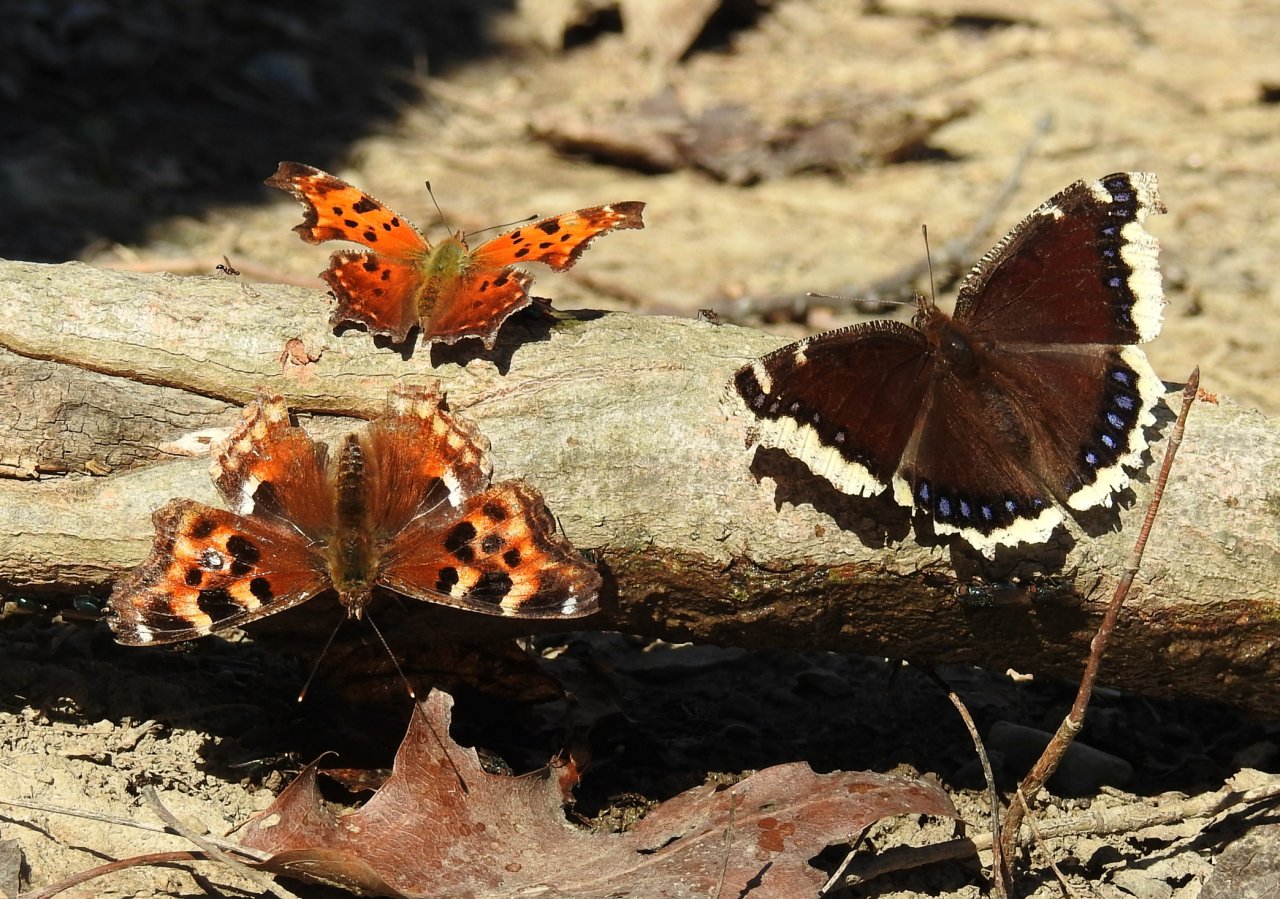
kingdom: Animalia
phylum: Arthropoda
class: Insecta
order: Lepidoptera
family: Nymphalidae
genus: Polygonia
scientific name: Polygonia comma
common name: Eastern Comma
